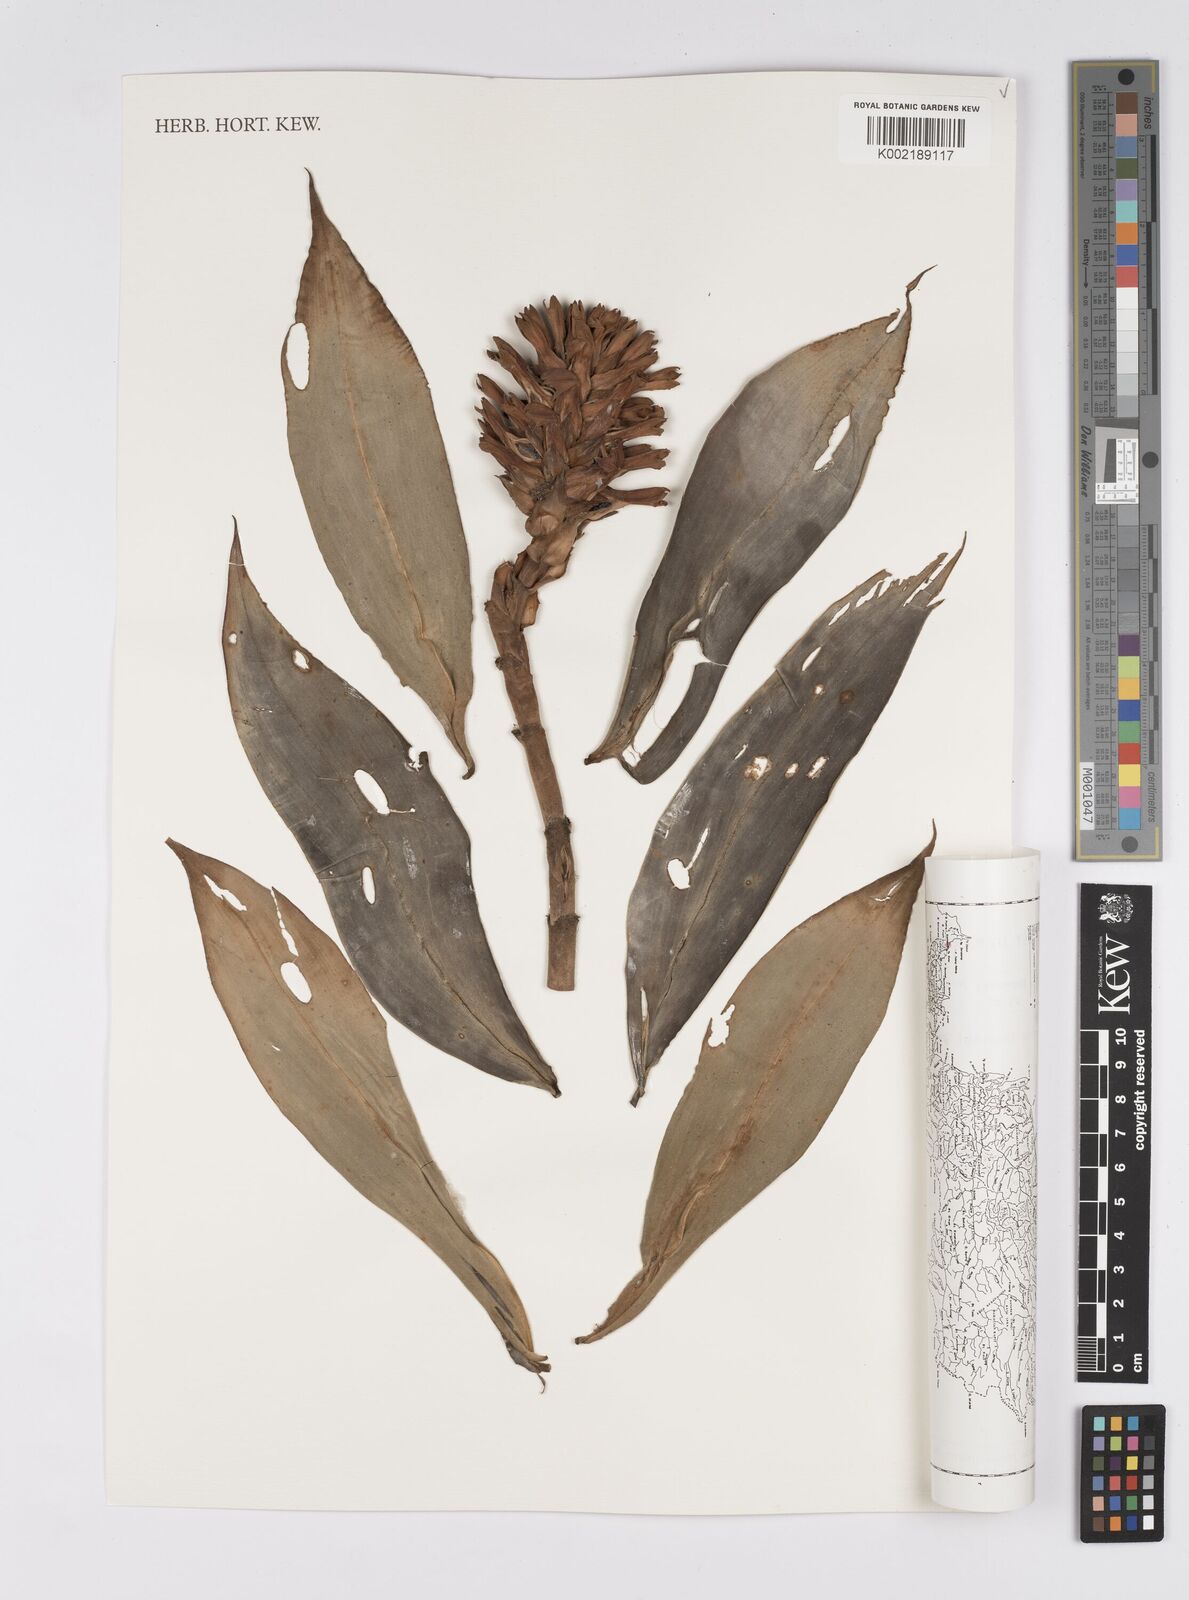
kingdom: Plantae
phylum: Tracheophyta
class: Liliopsida
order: Zingiberales
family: Costaceae
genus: Hellenia
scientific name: Hellenia speciosa
